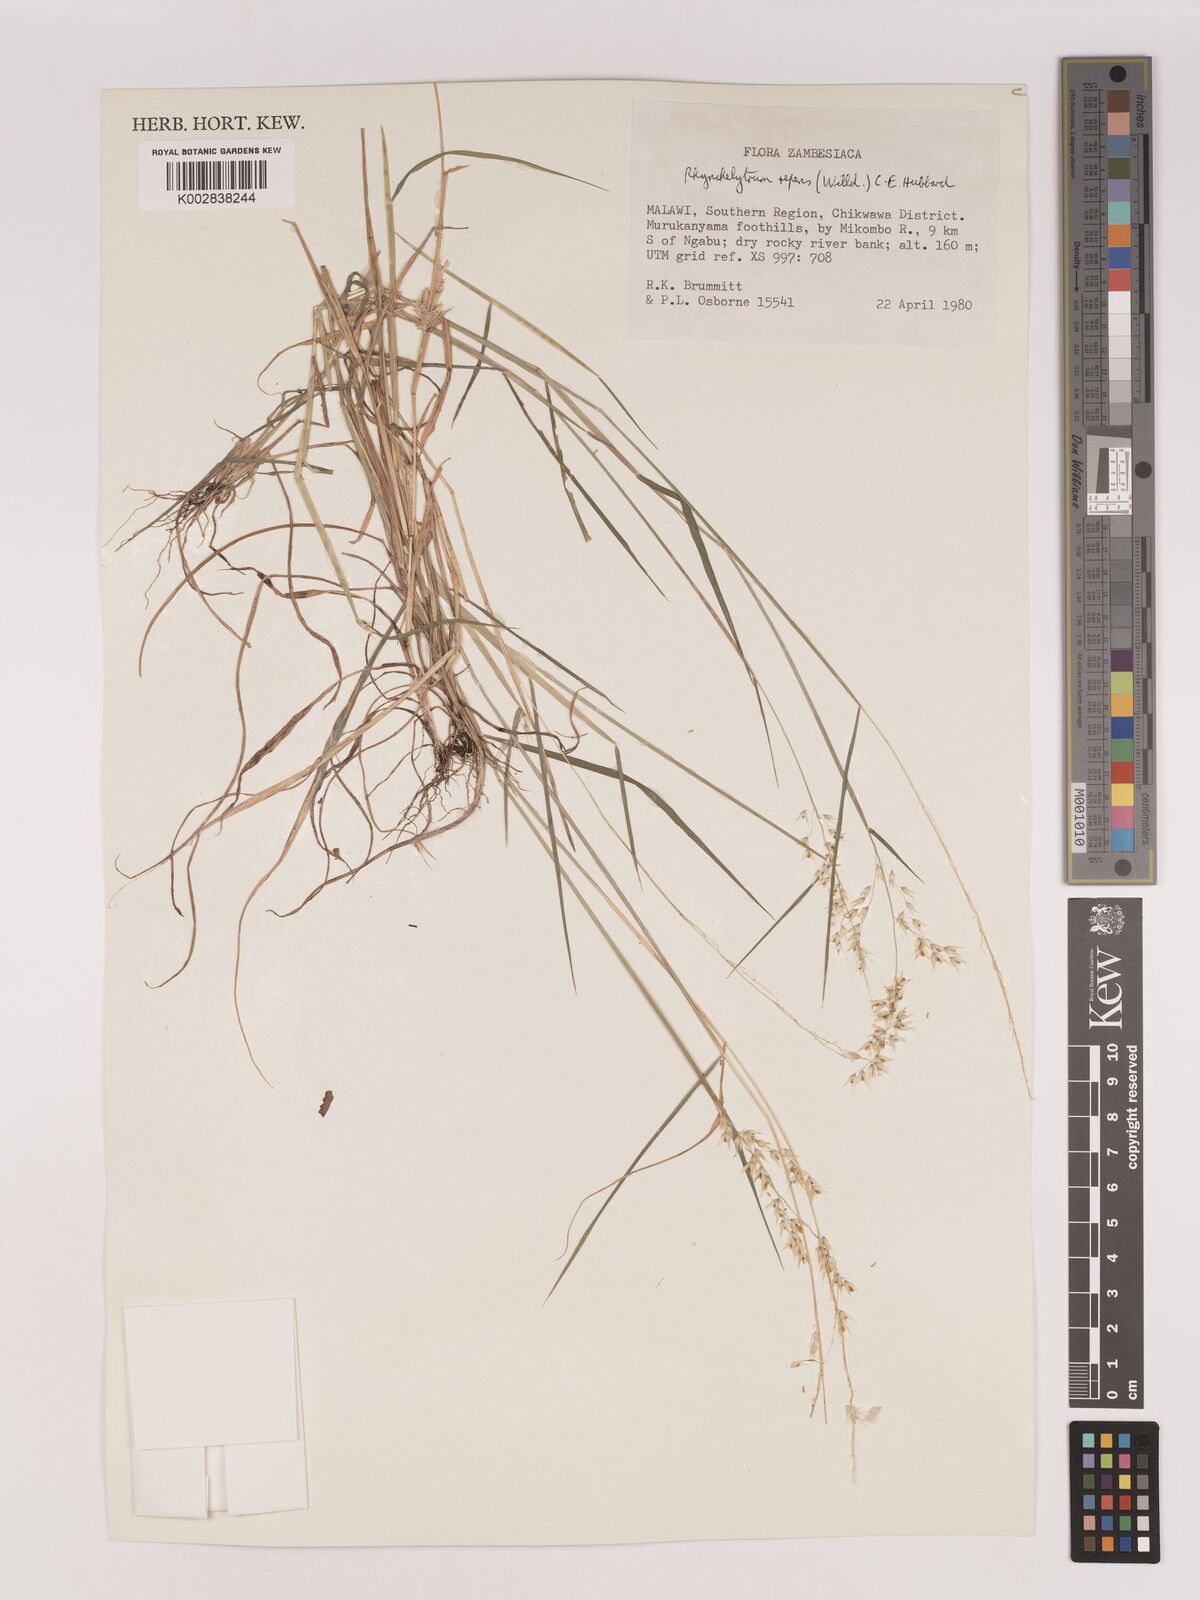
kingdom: Plantae
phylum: Tracheophyta
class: Liliopsida
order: Poales
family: Poaceae
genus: Melinis
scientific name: Melinis repens
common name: Rose natal grass
